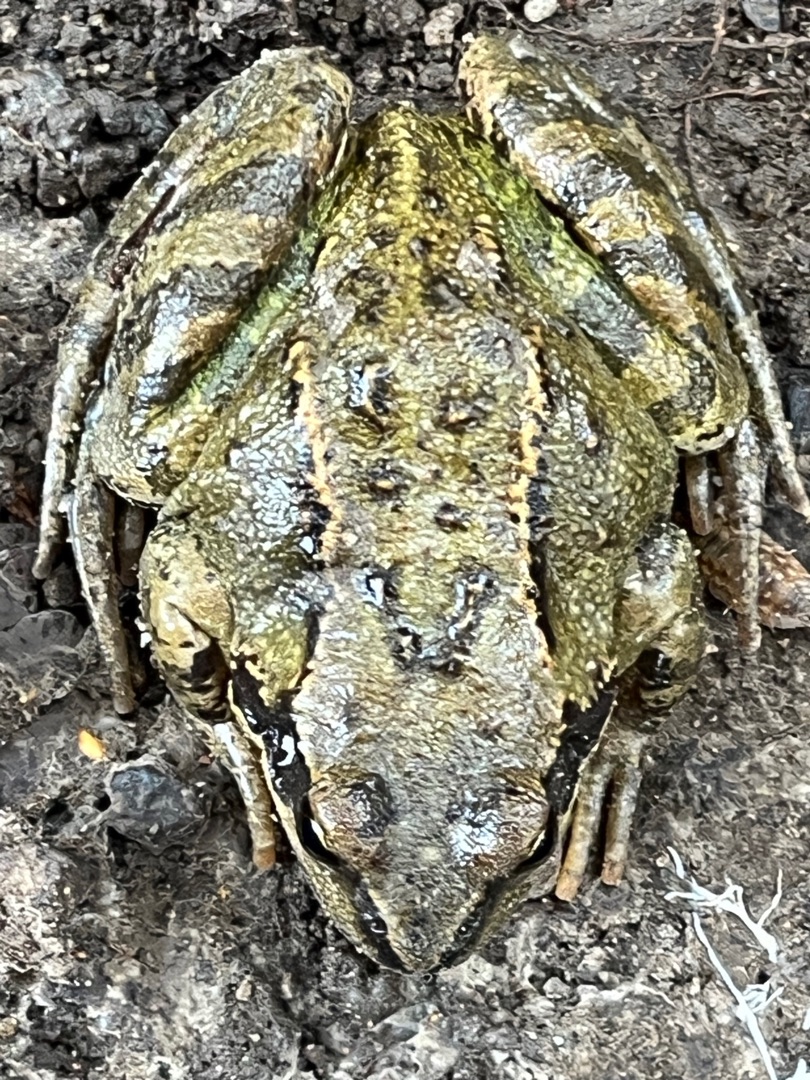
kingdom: Animalia
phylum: Chordata
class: Amphibia
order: Anura
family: Ranidae
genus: Rana
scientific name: Rana temporaria
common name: Butsnudet frø
